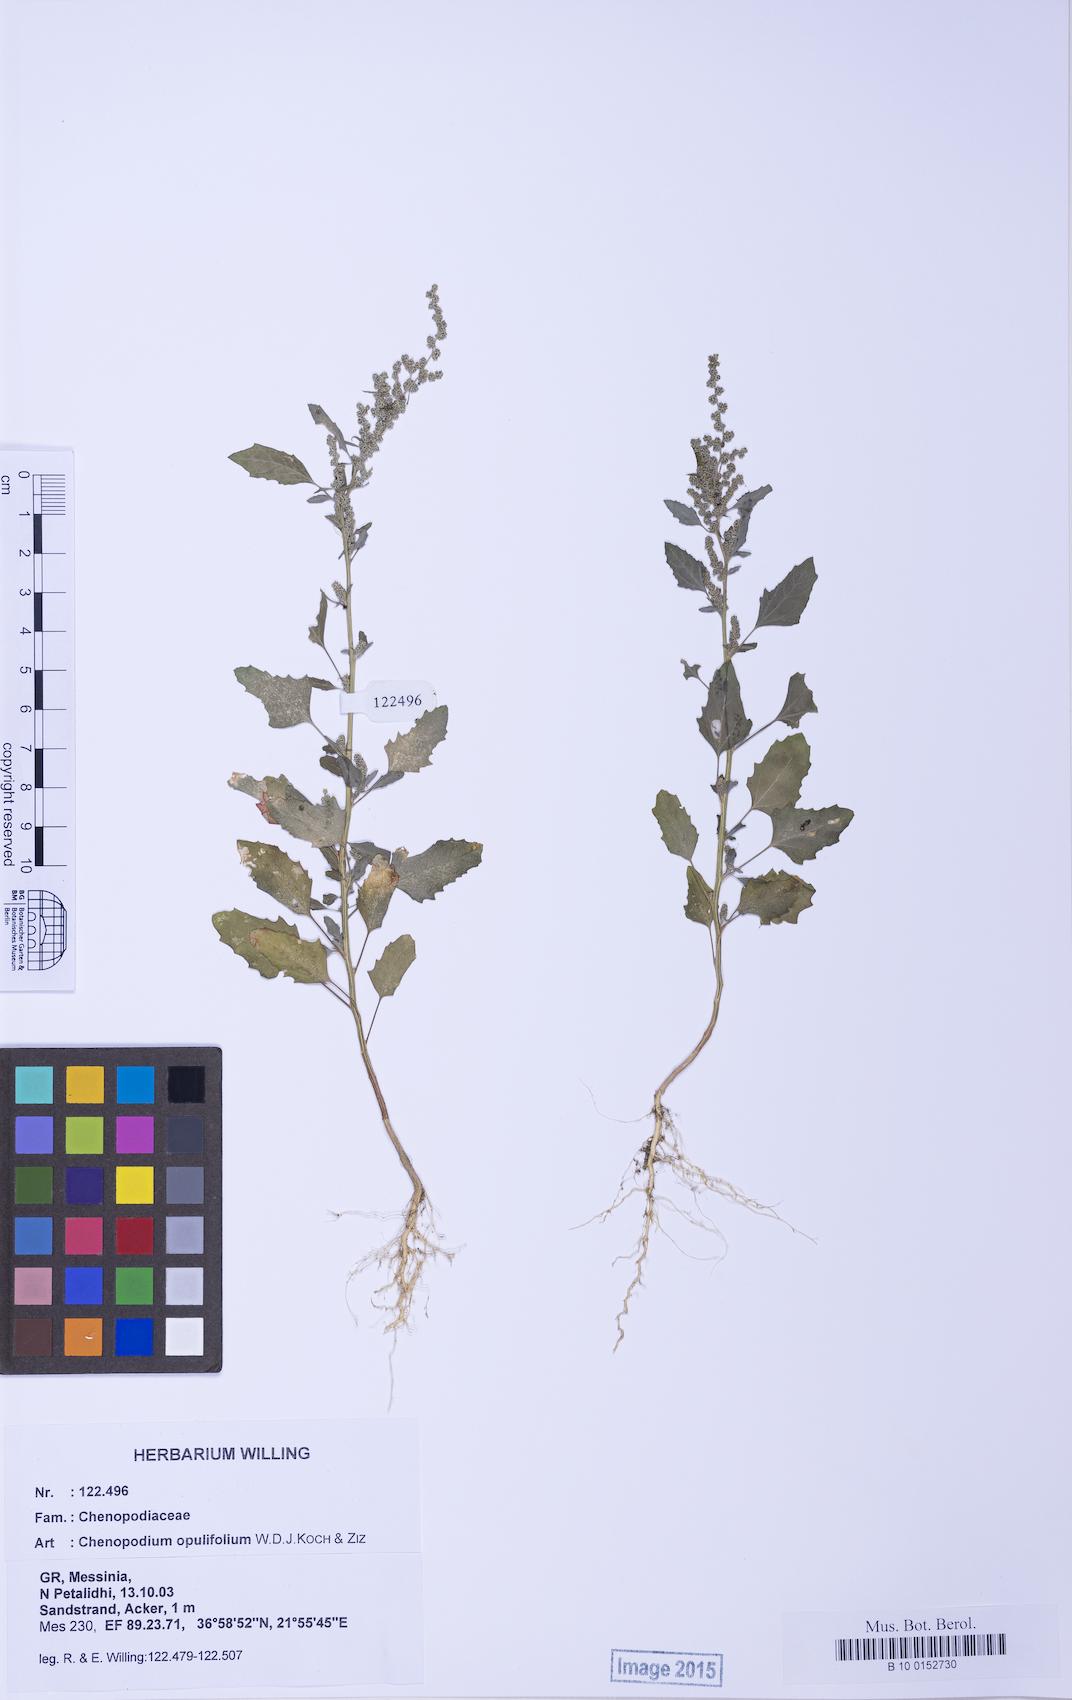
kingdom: Plantae
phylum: Tracheophyta
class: Magnoliopsida
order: Caryophyllales
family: Amaranthaceae
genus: Chenopodium
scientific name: Chenopodium album
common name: Fat-hen
